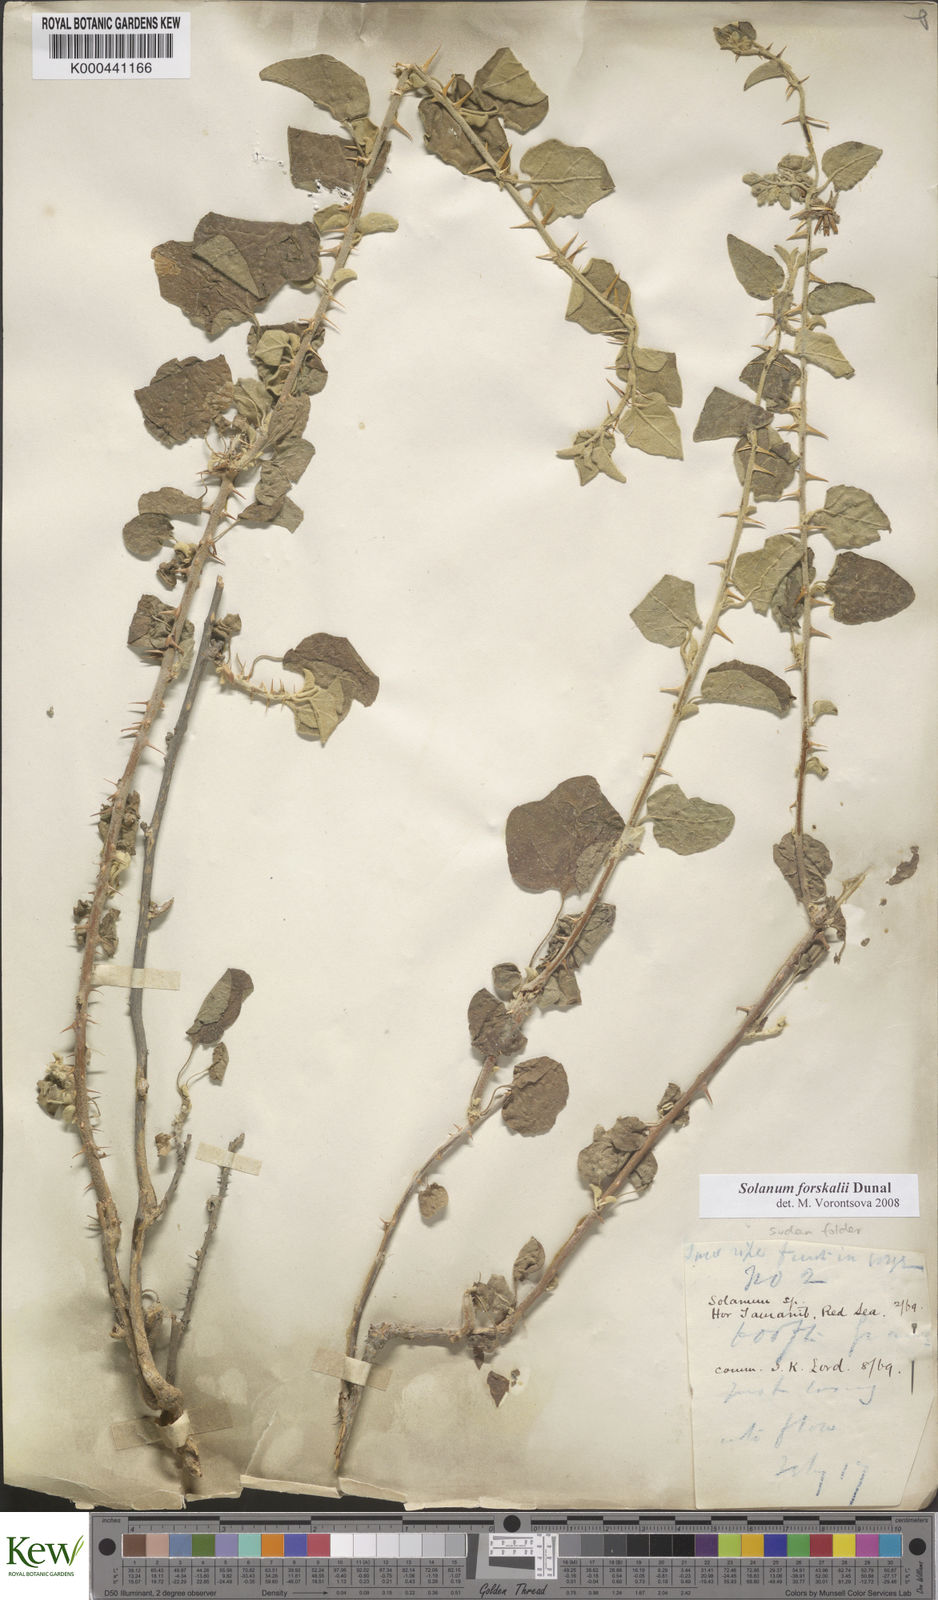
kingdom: Plantae
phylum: Tracheophyta
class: Magnoliopsida
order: Solanales
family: Solanaceae
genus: Solanum
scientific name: Solanum
